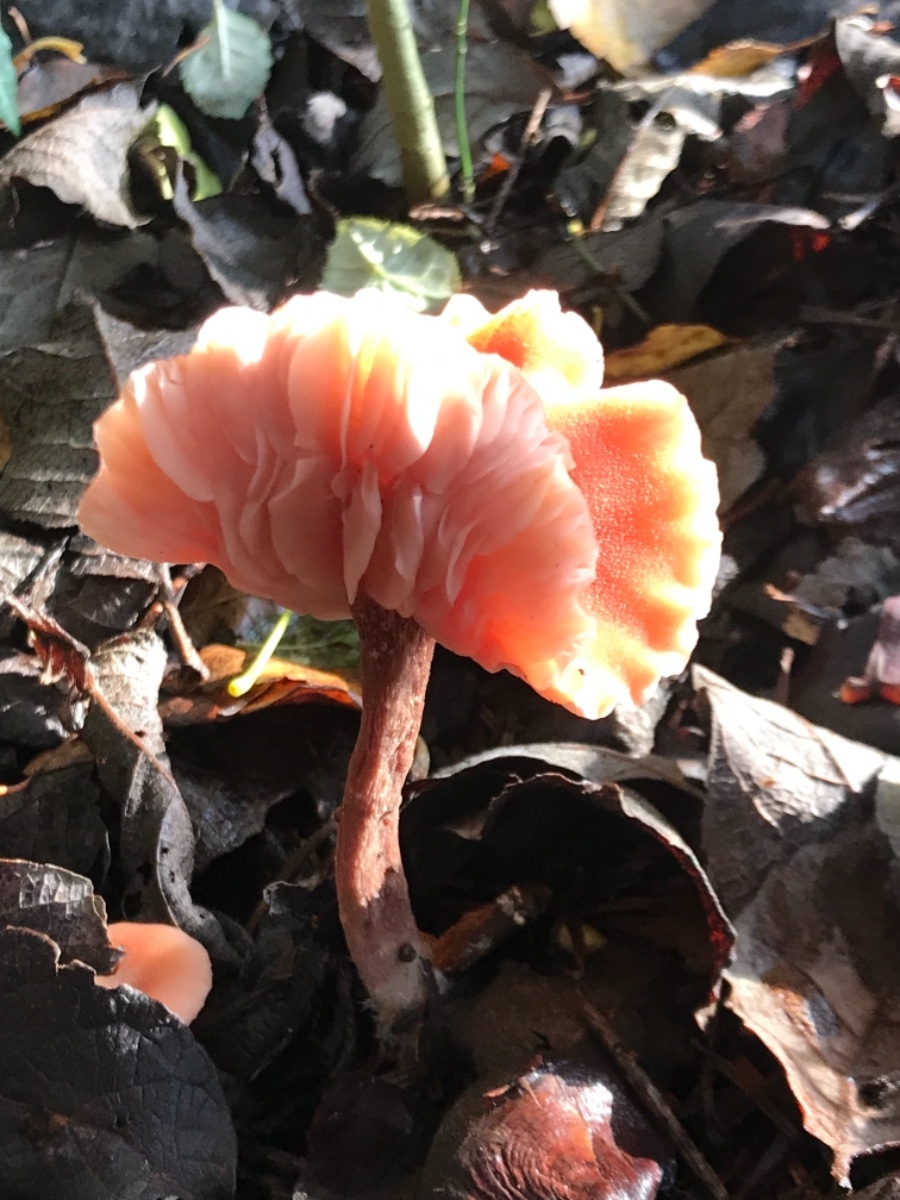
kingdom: Fungi
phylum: Basidiomycota
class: Agaricomycetes
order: Agaricales
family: Hydnangiaceae
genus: Laccaria
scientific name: Laccaria proxima
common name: stor ametysthat
